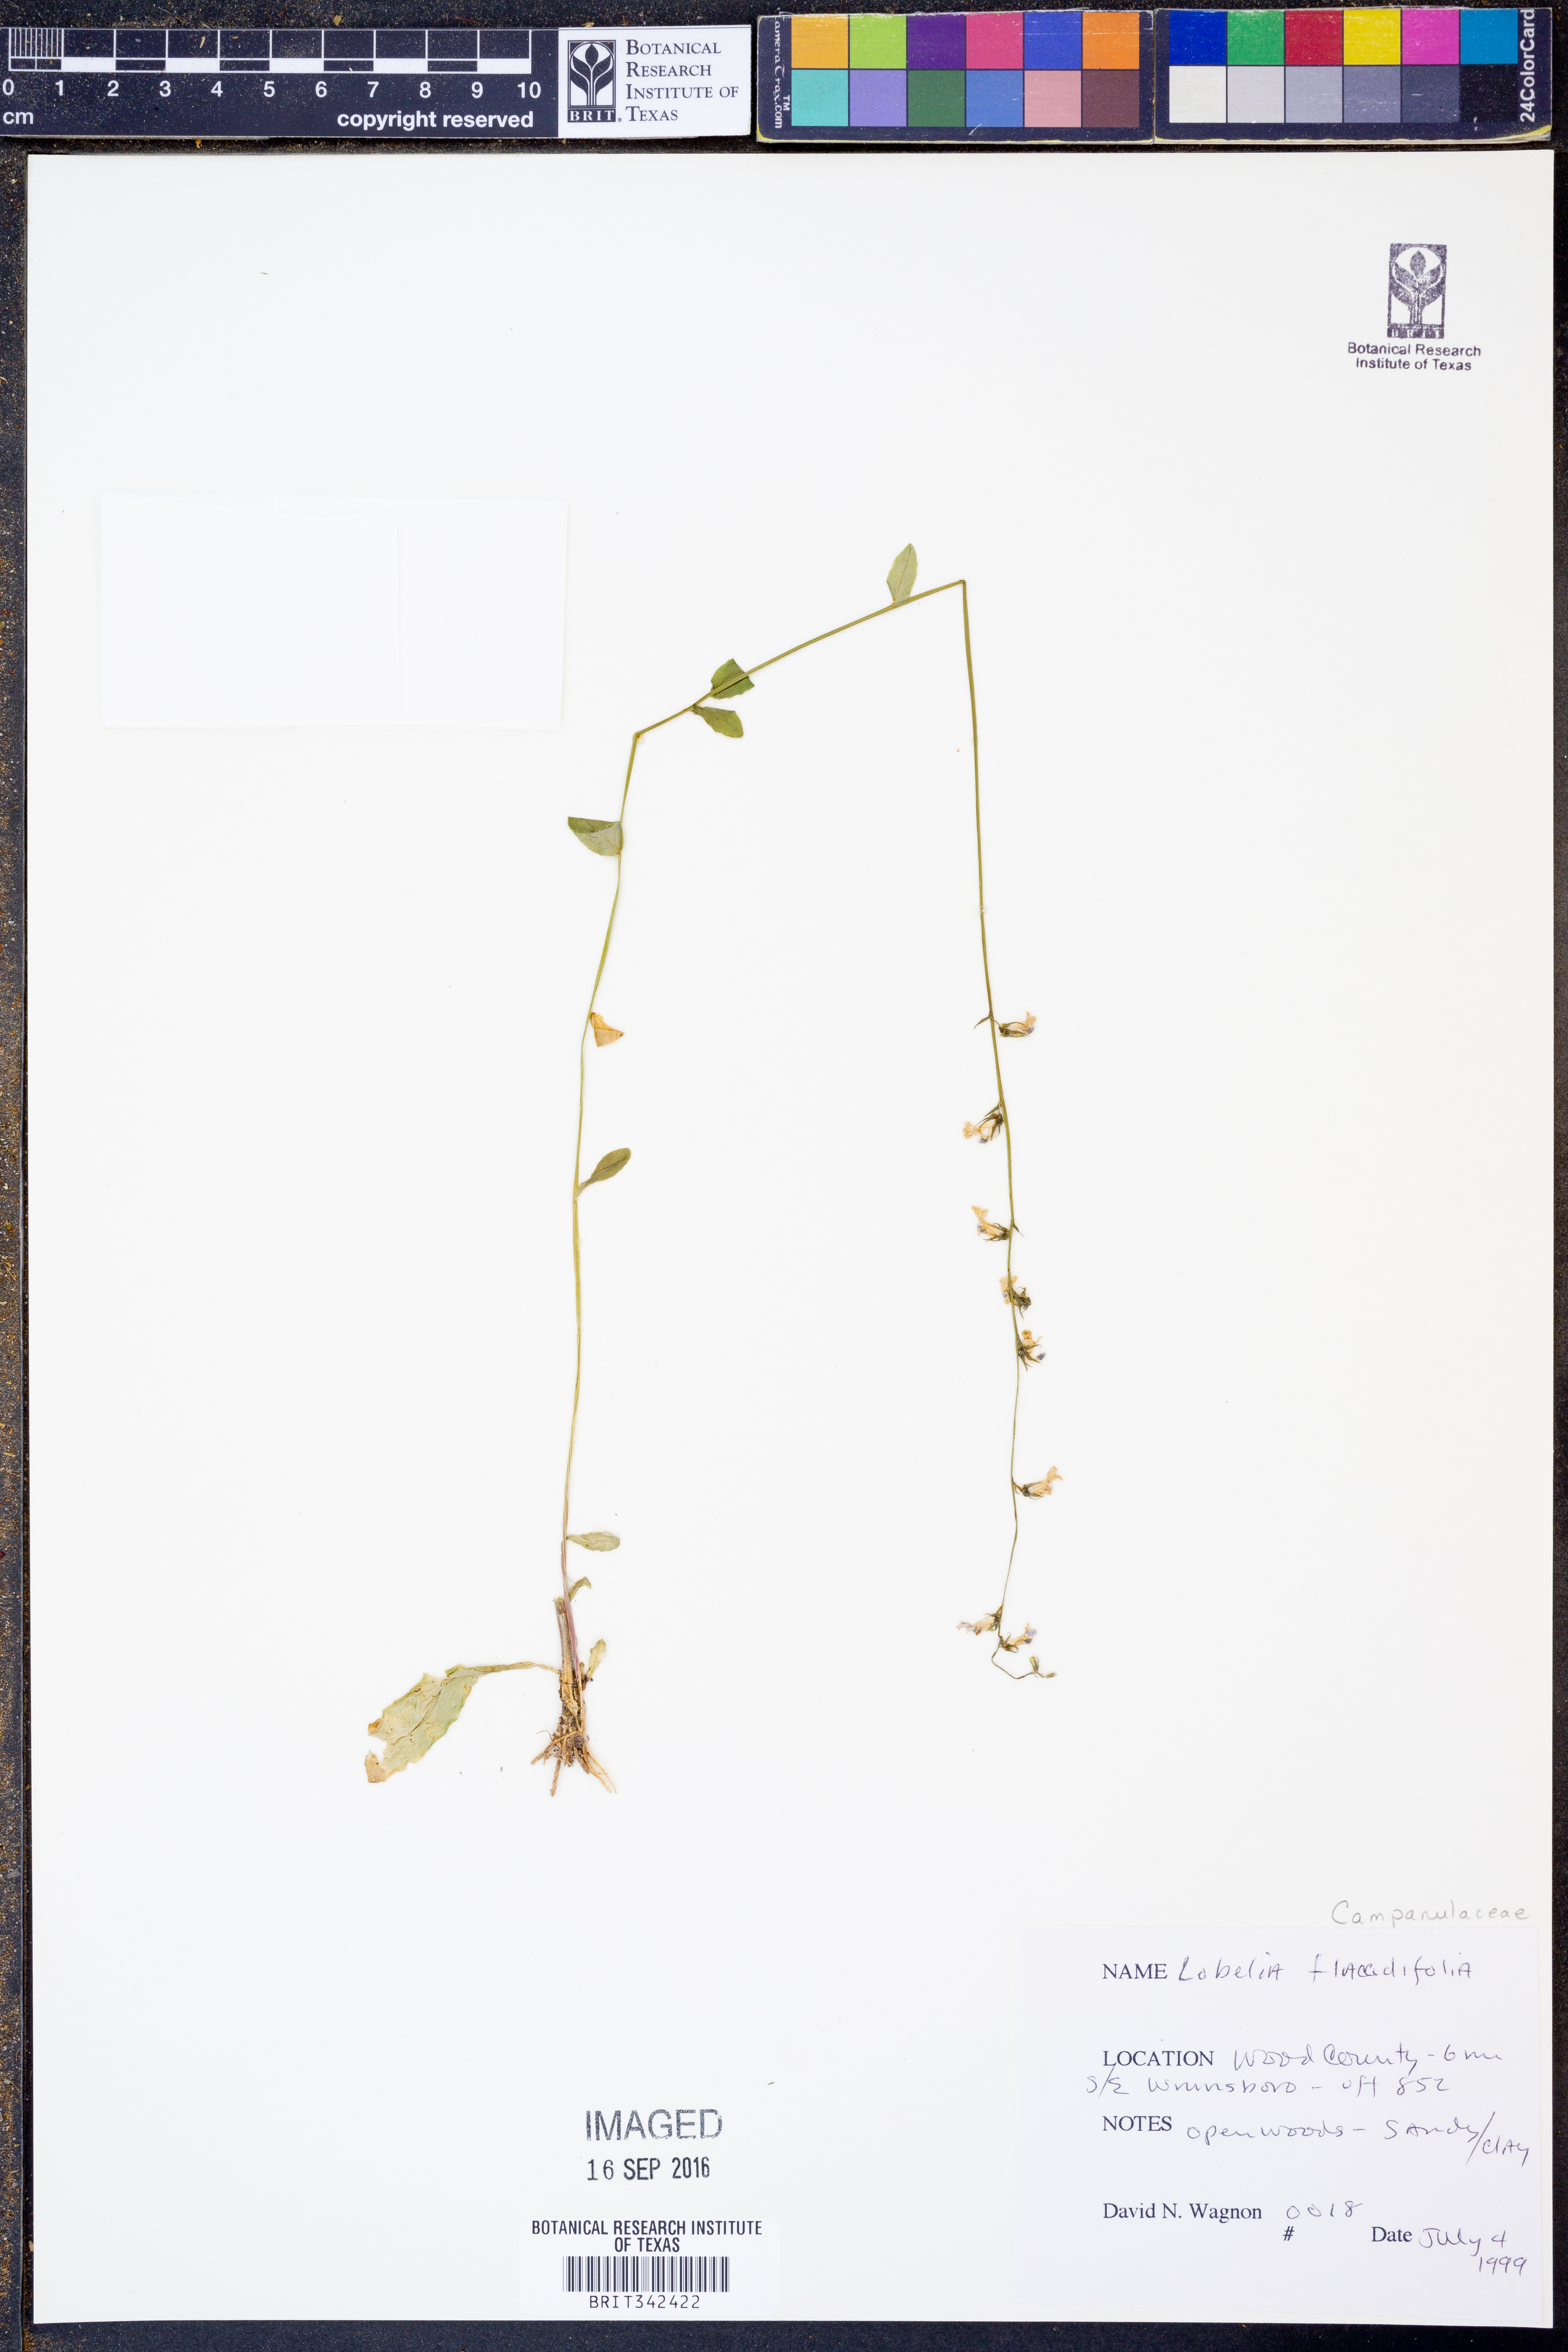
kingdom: Plantae
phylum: Tracheophyta
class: Magnoliopsida
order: Asterales
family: Campanulaceae
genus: Lobelia
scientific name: Lobelia flaccidifolia
